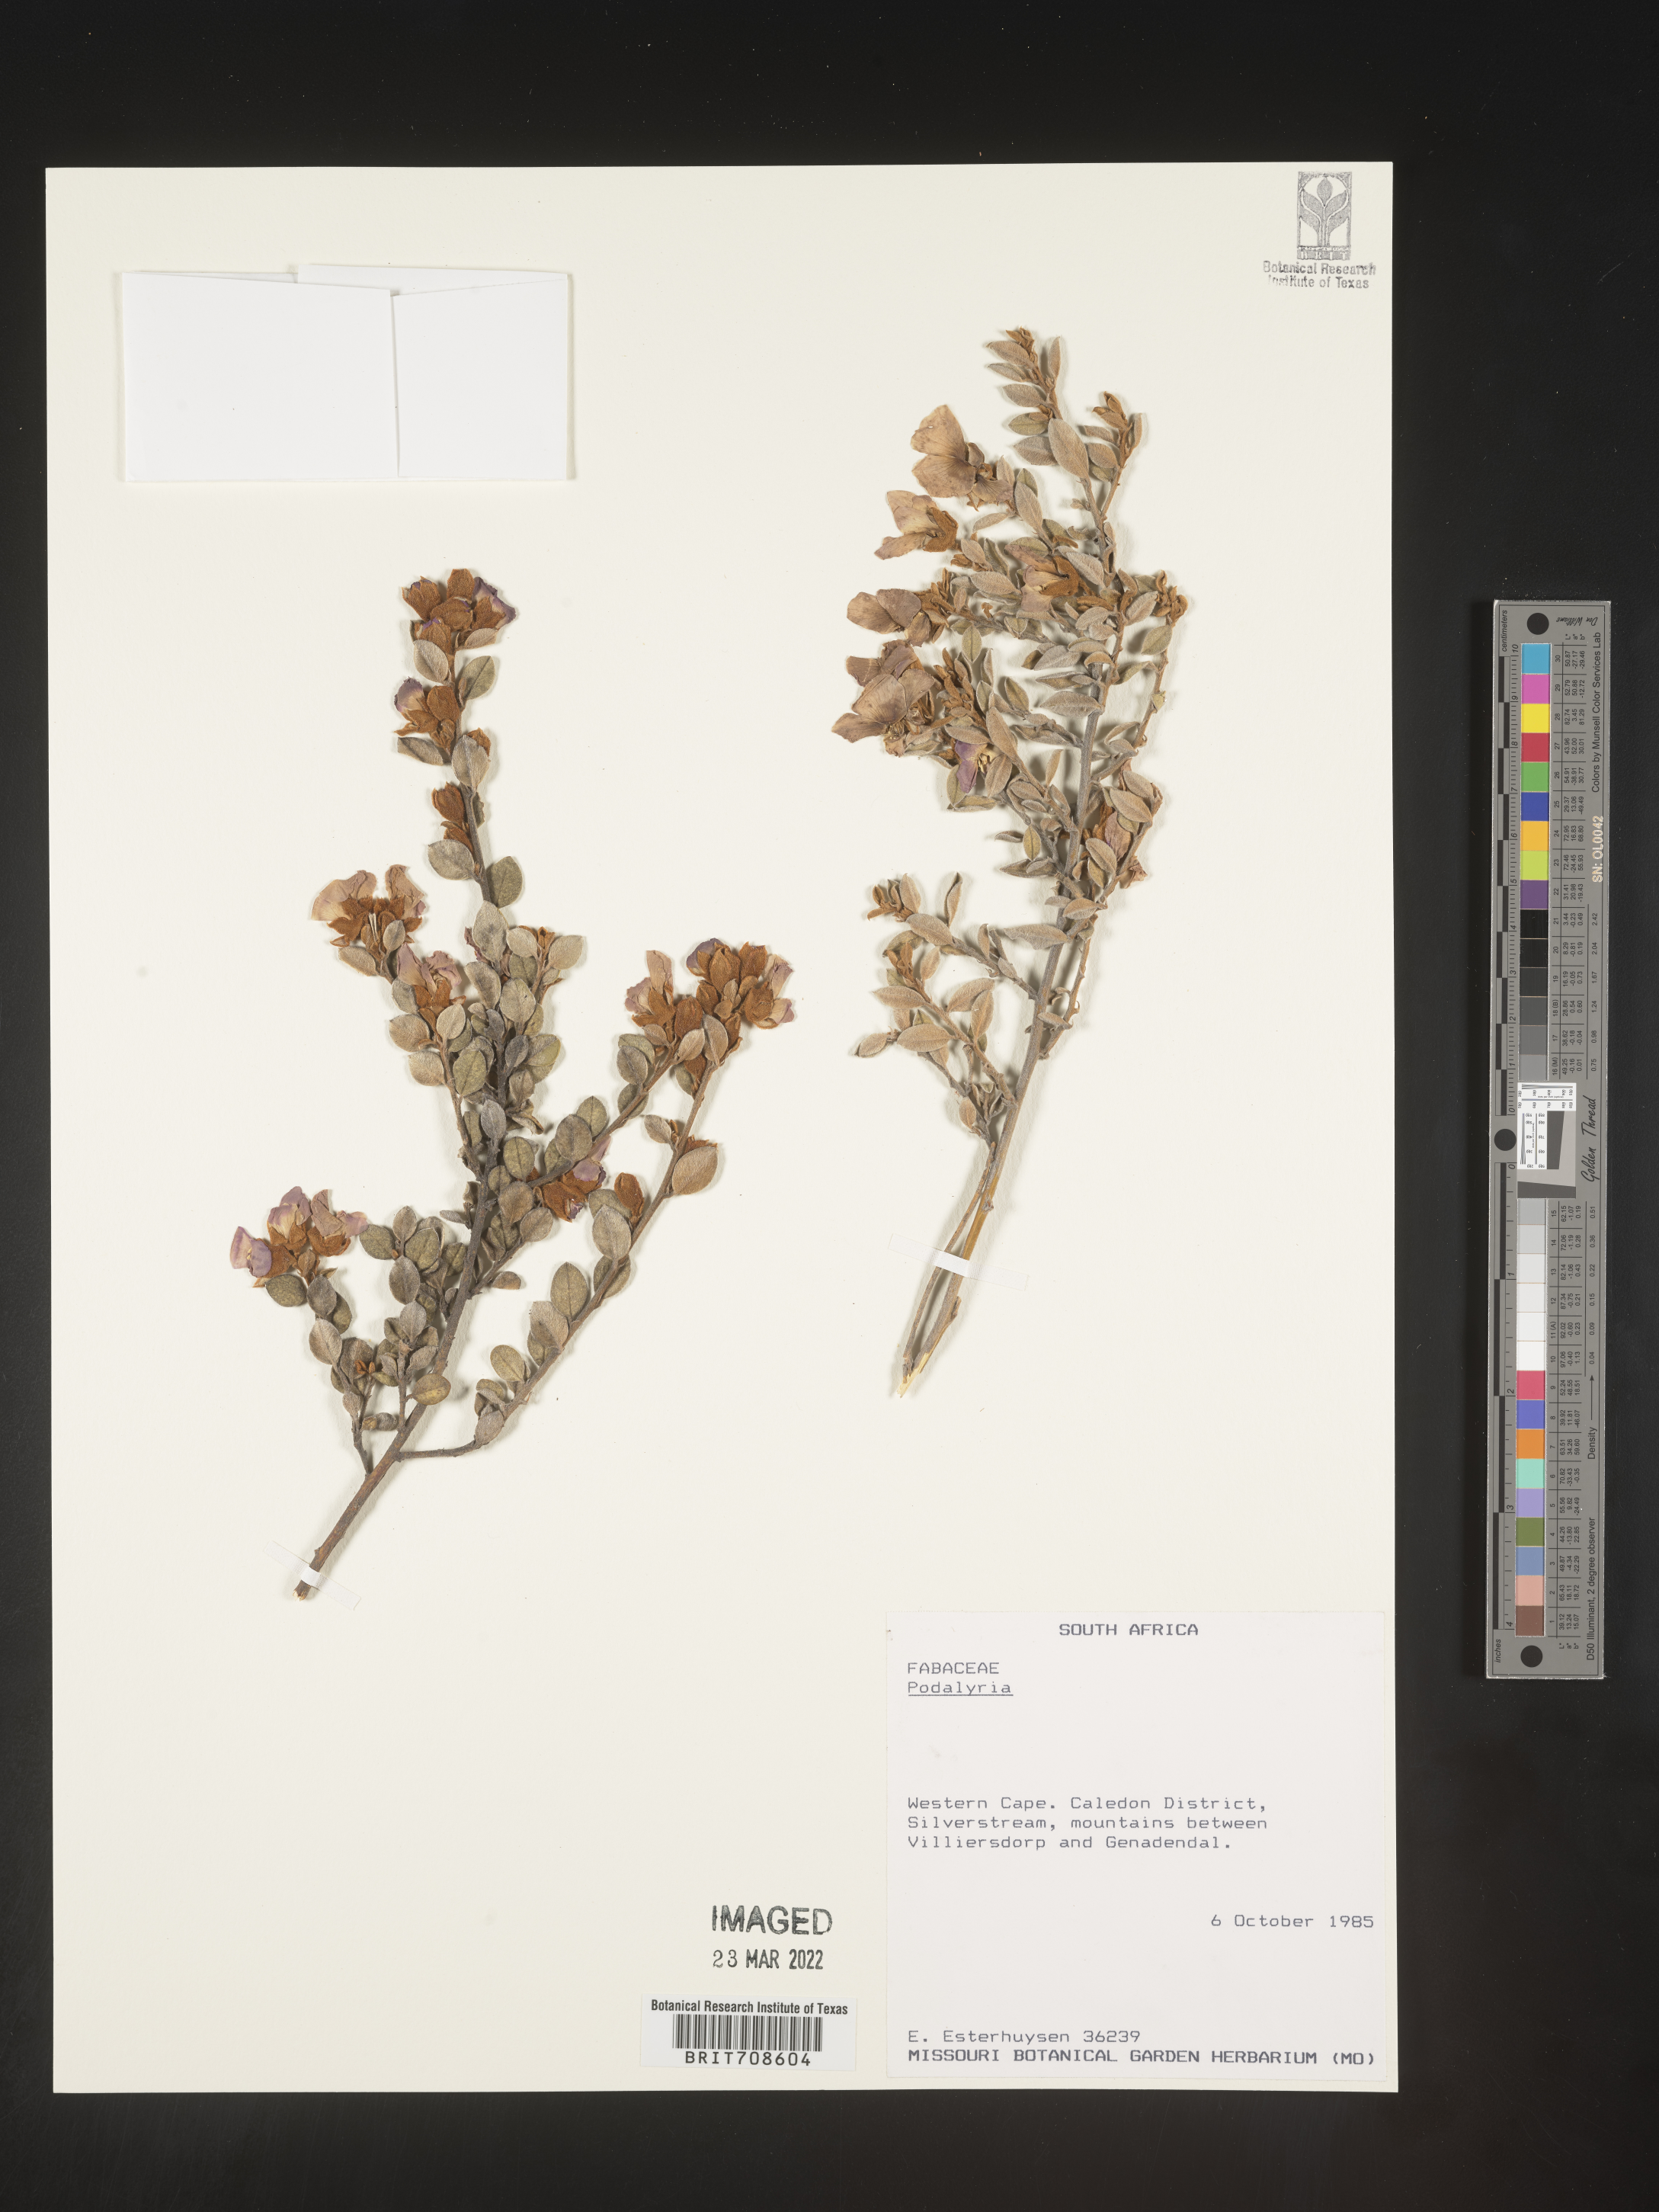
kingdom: Plantae
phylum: Tracheophyta
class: Magnoliopsida
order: Fabales
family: Fabaceae
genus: Podalyria
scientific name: Podalyria
